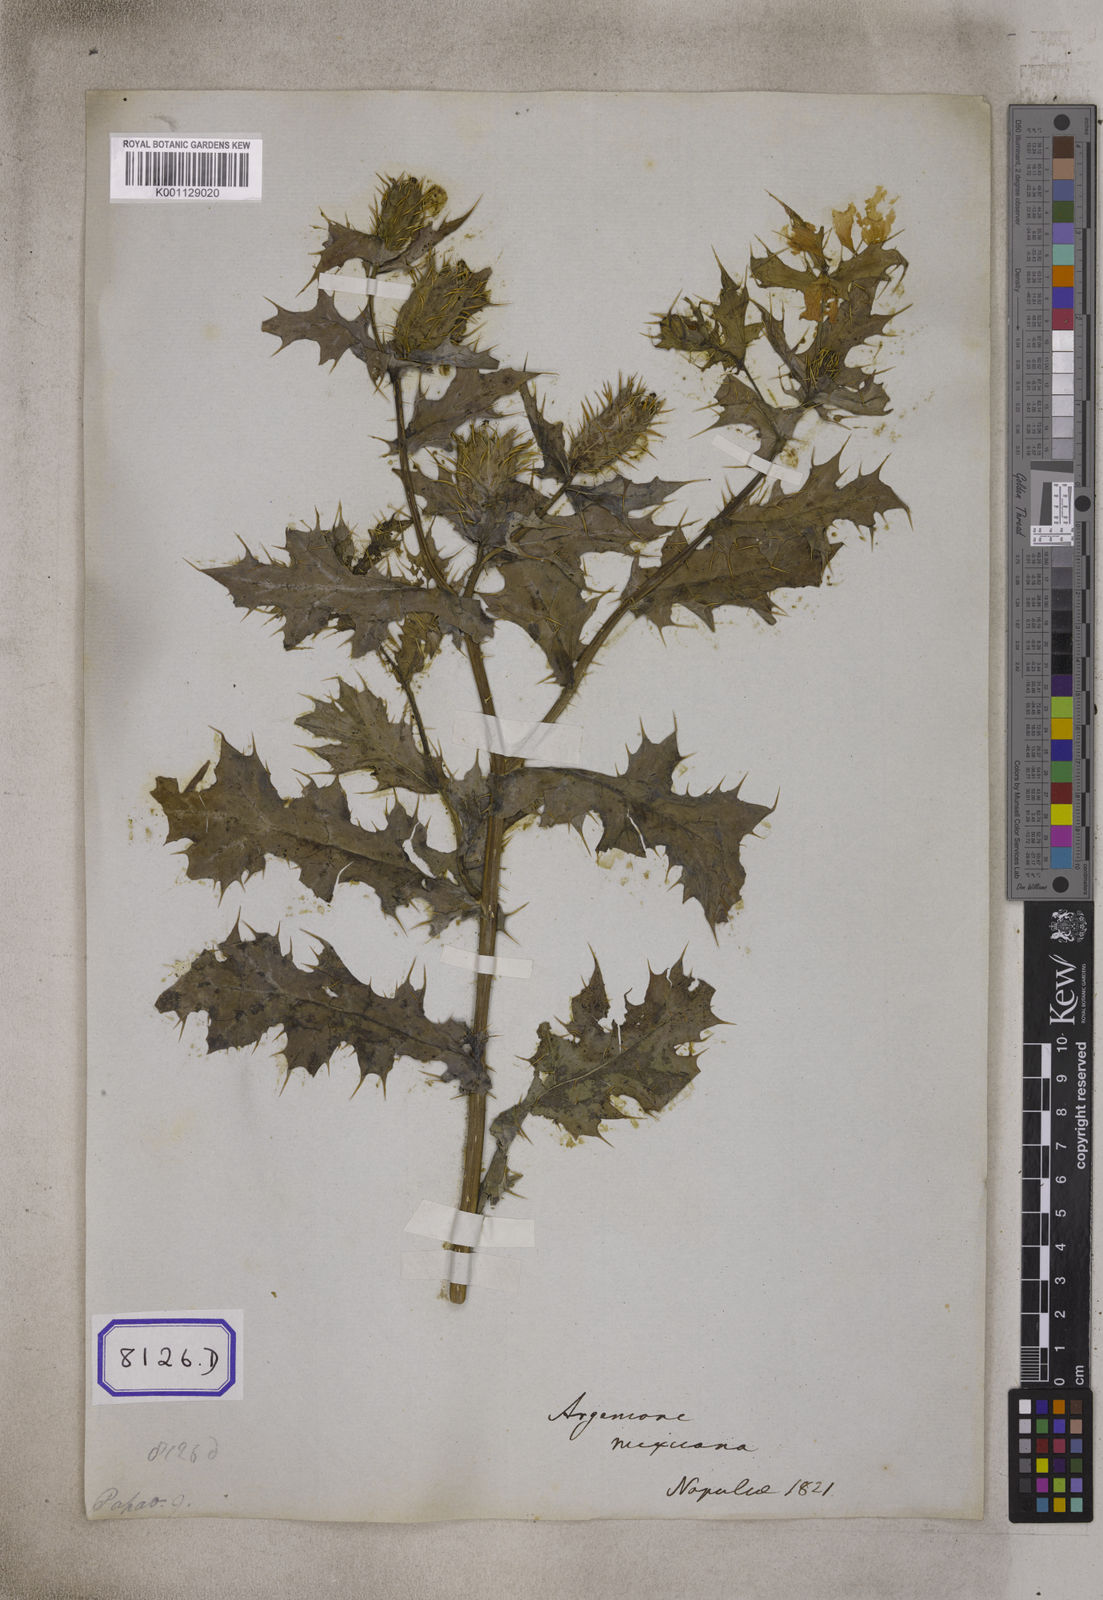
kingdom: Plantae
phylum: Tracheophyta
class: Magnoliopsida
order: Ranunculales
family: Papaveraceae
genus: Argemone
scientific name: Argemone mexicana
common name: Mexican poppy
